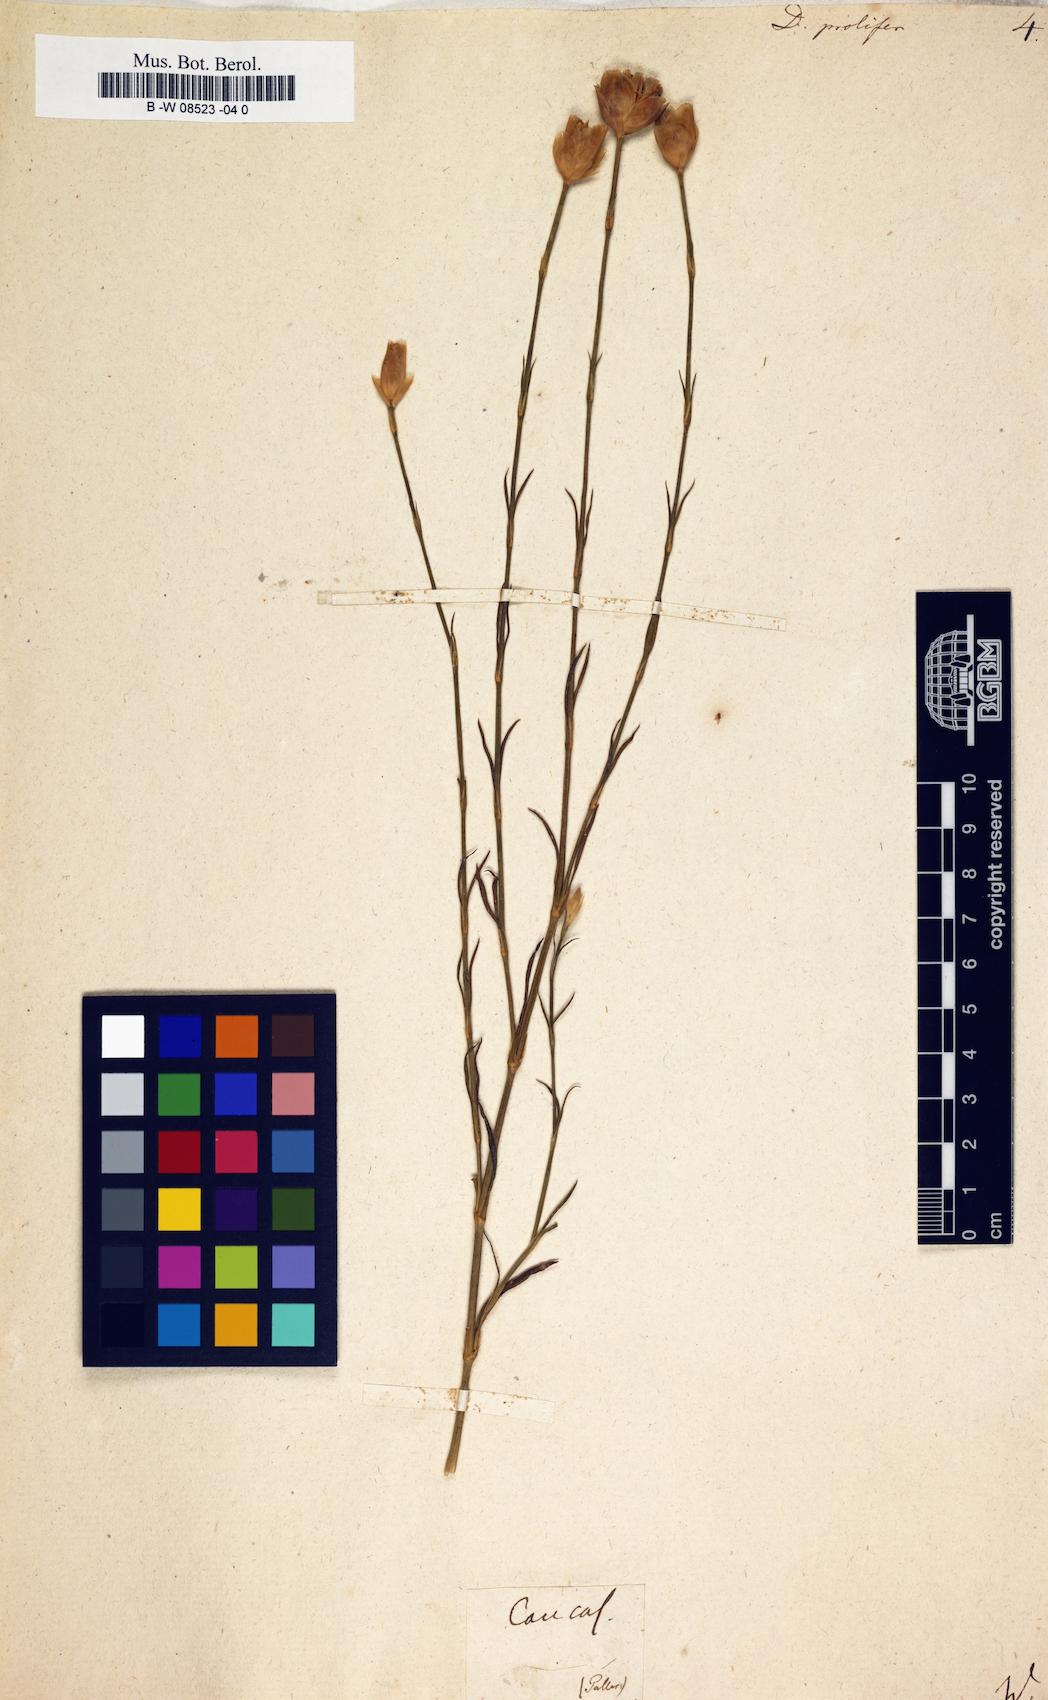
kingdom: Plantae
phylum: Tracheophyta
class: Magnoliopsida
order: Caryophyllales
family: Caryophyllaceae
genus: Dianthus
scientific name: Dianthus prolifer
